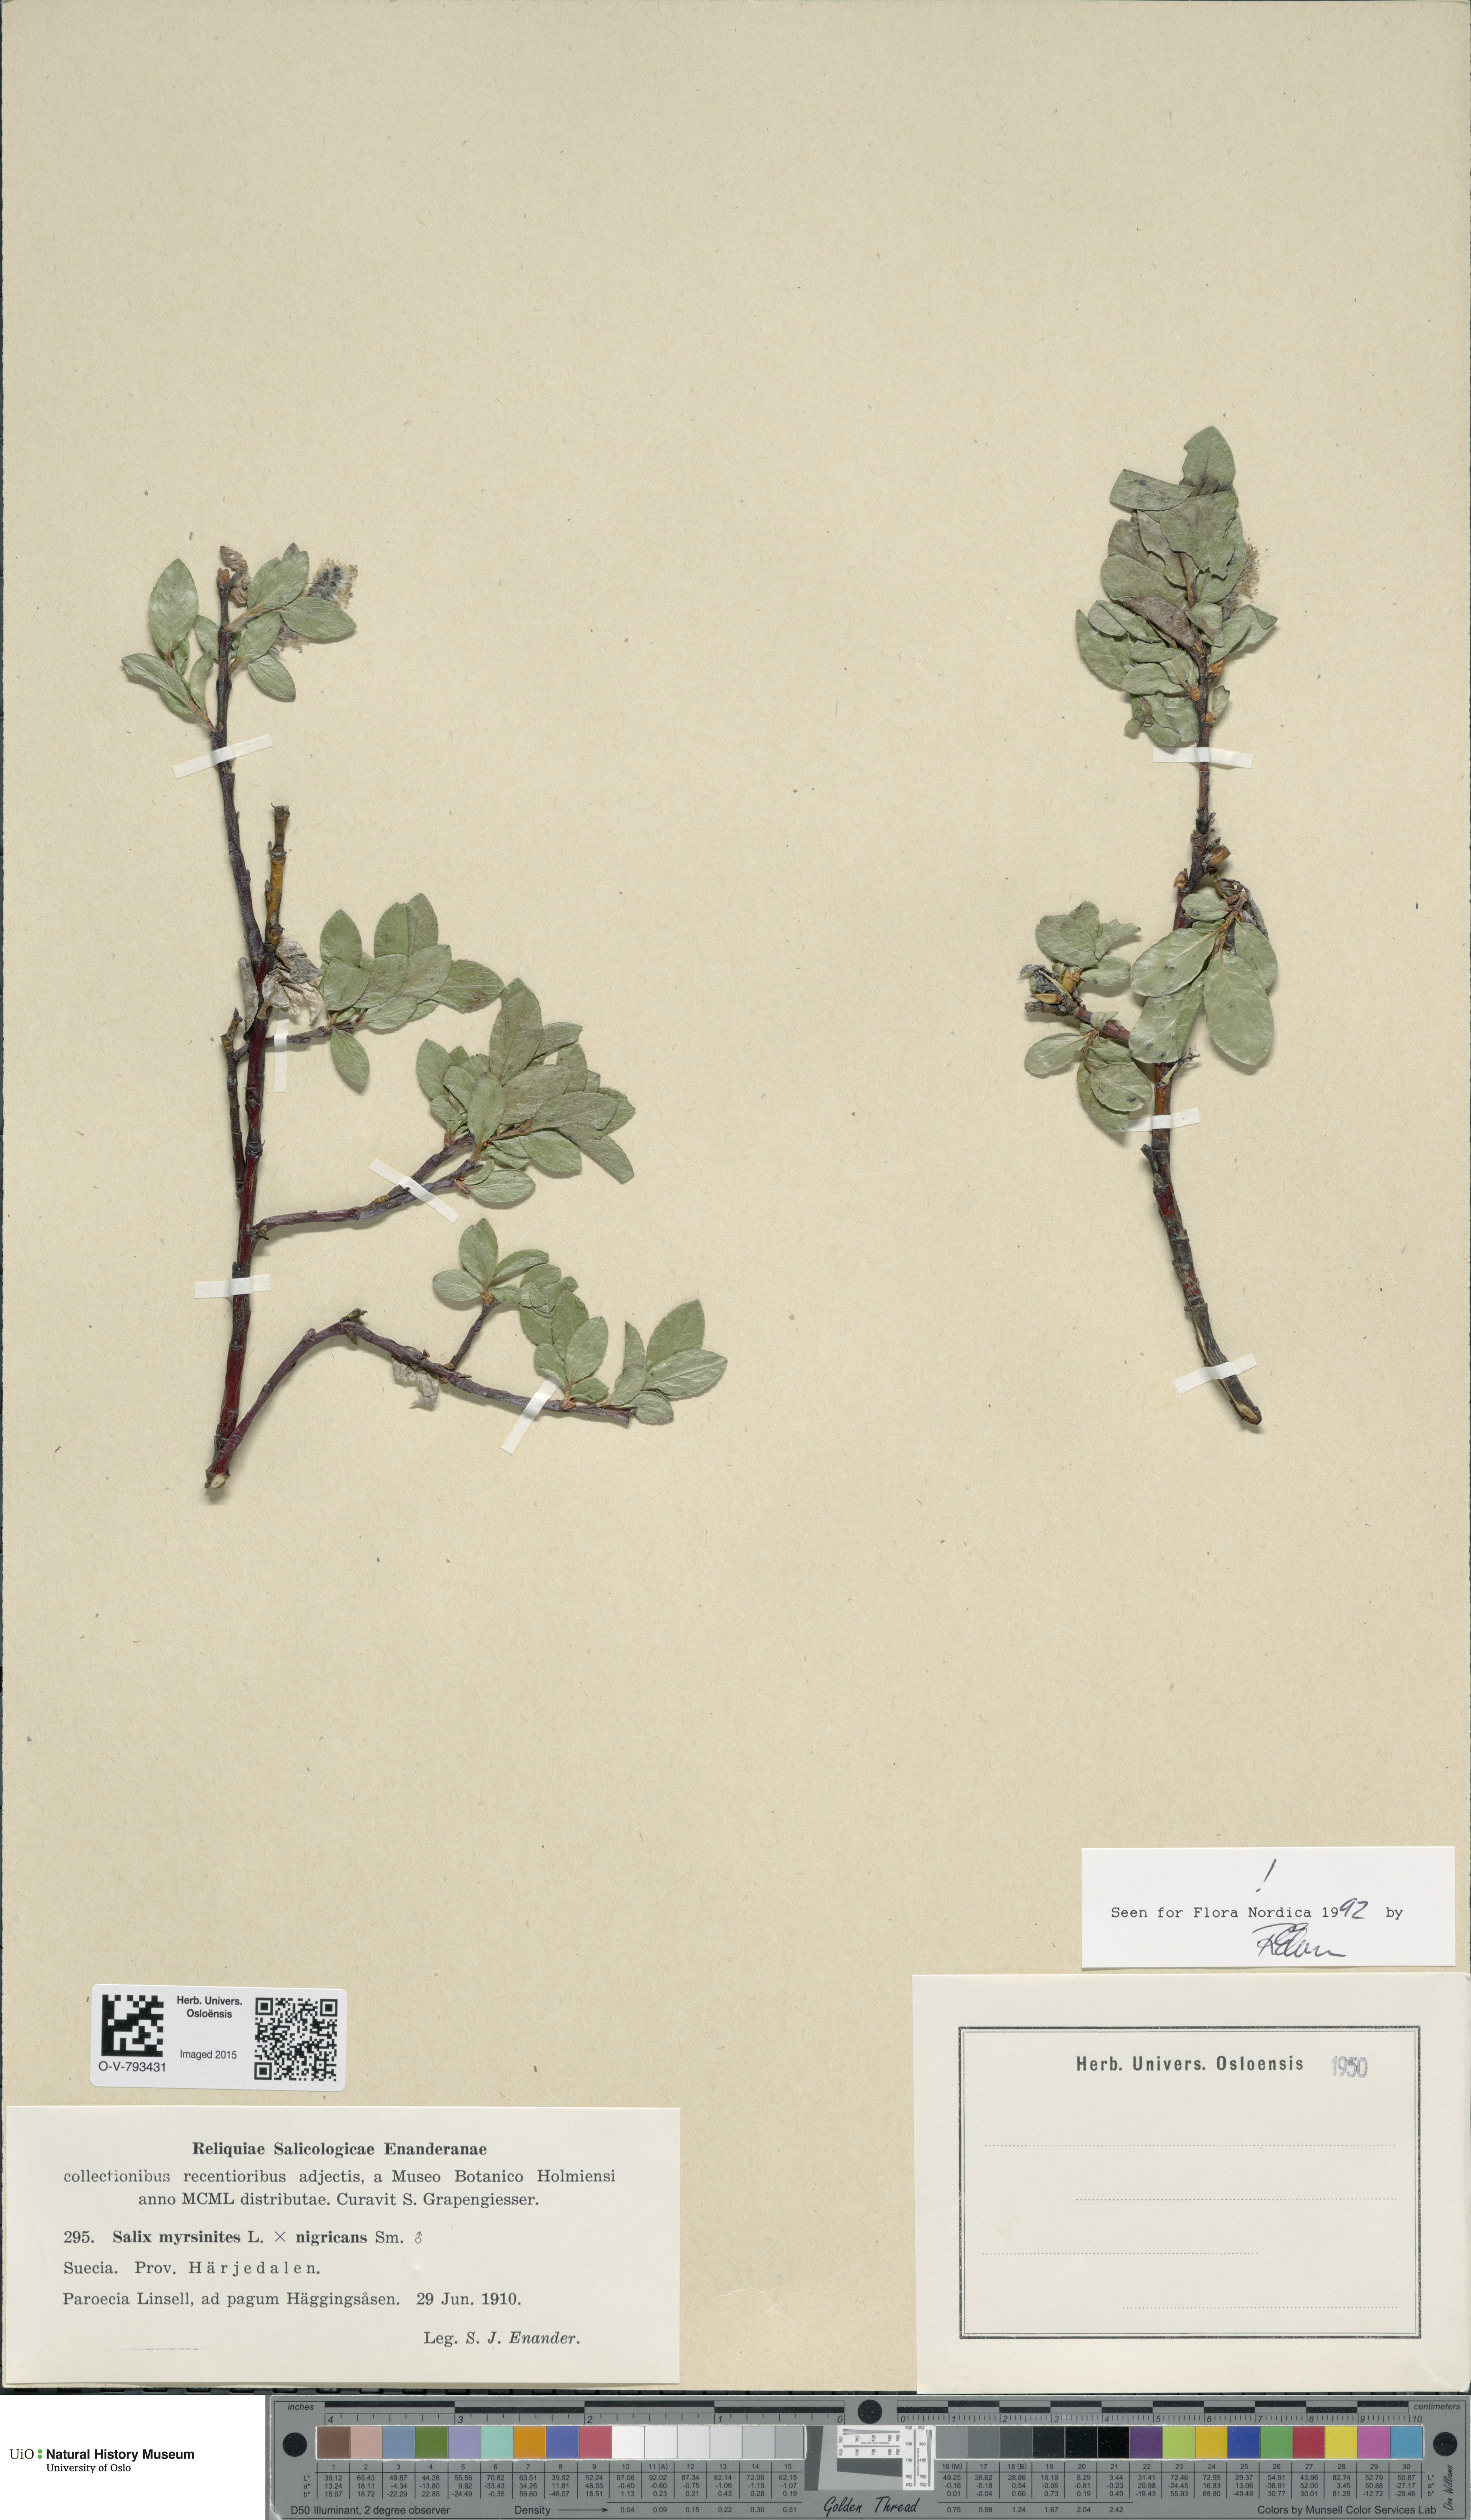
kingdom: Plantae
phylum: Tracheophyta
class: Magnoliopsida
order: Malpighiales
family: Salicaceae
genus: Salix
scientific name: Salix
